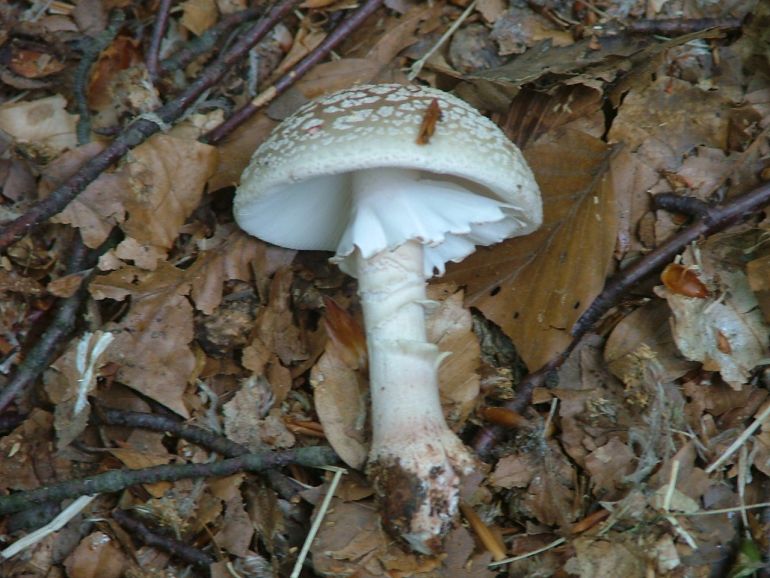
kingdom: Fungi
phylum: Basidiomycota
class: Agaricomycetes
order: Agaricales
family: Amanitaceae
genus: Amanita
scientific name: Amanita rubescens
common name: rødmende fluesvamp
